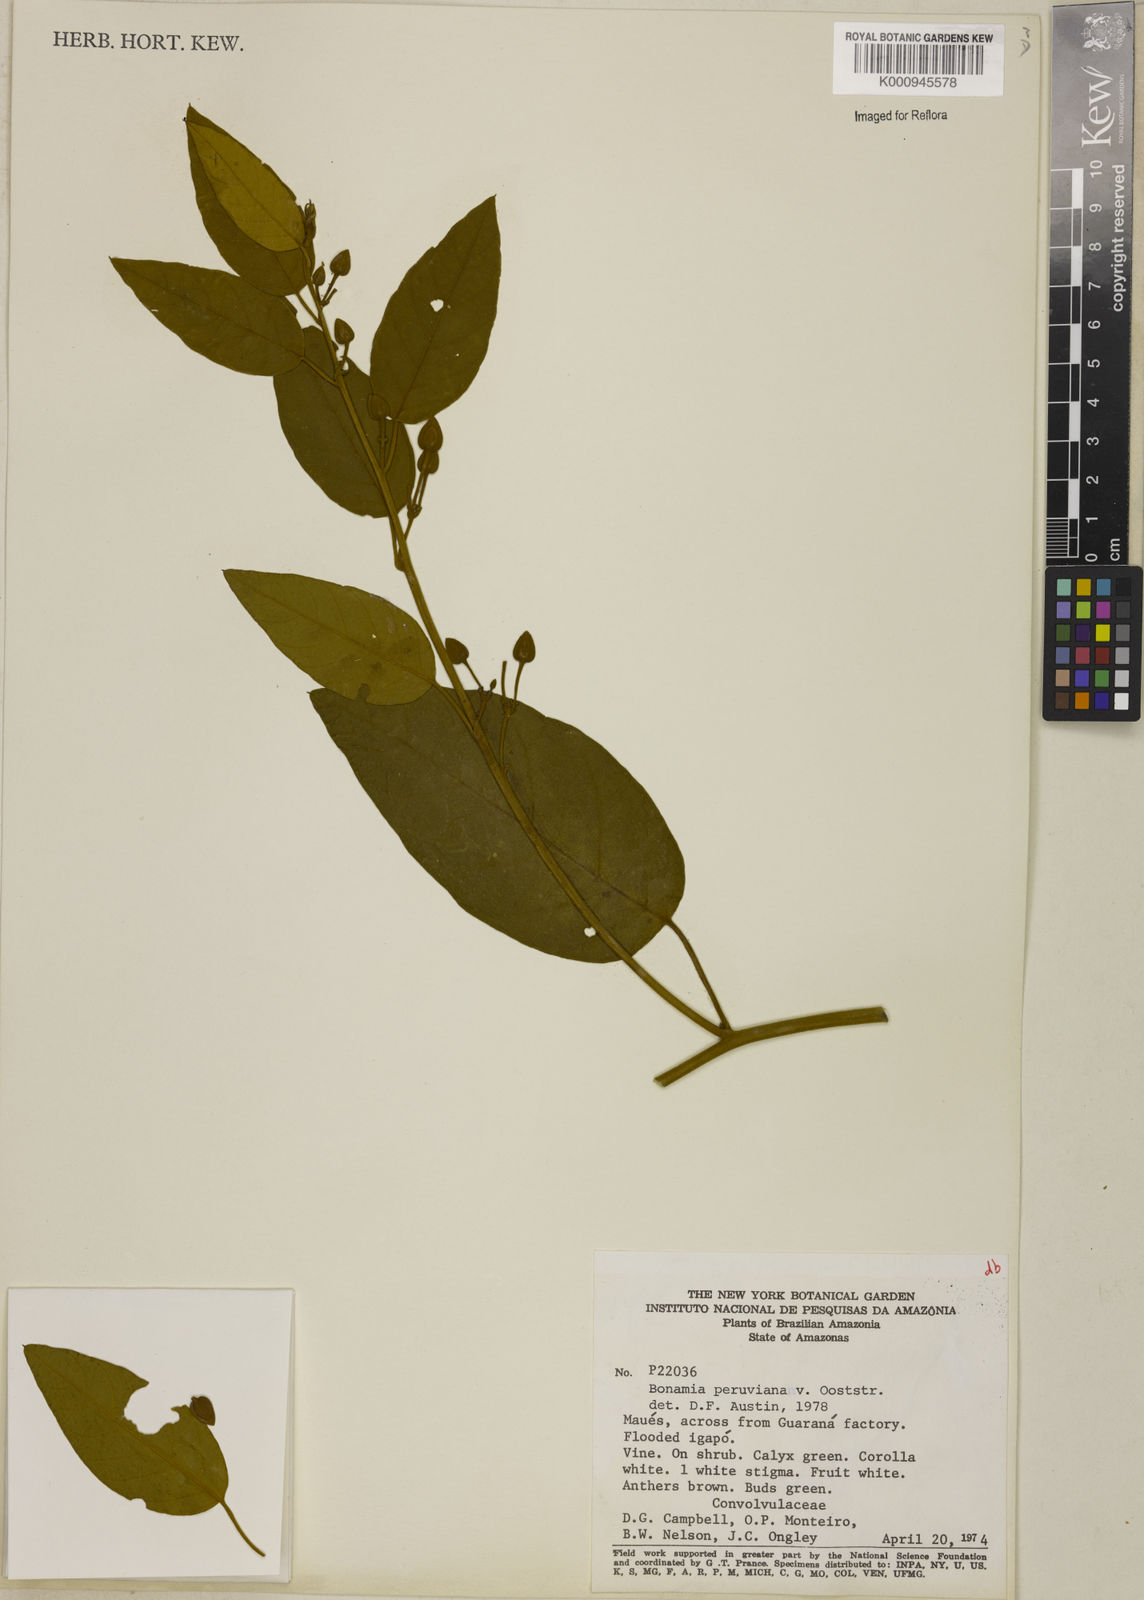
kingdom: Plantae
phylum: Tracheophyta
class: Magnoliopsida
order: Solanales
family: Convolvulaceae
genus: Bonamia
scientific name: Bonamia peruviana
